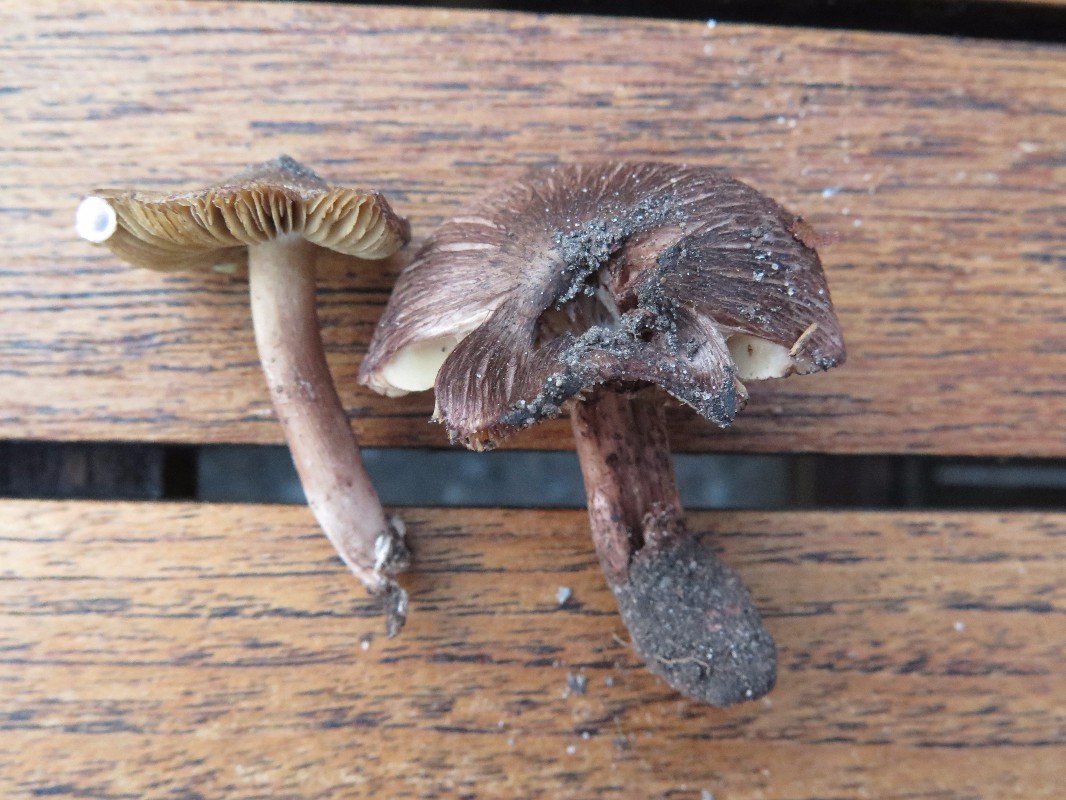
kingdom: Fungi
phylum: Basidiomycota
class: Agaricomycetes
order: Agaricales
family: Inocybaceae
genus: Inosperma
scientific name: Inosperma adaequatum
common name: vinrød trævlhat
